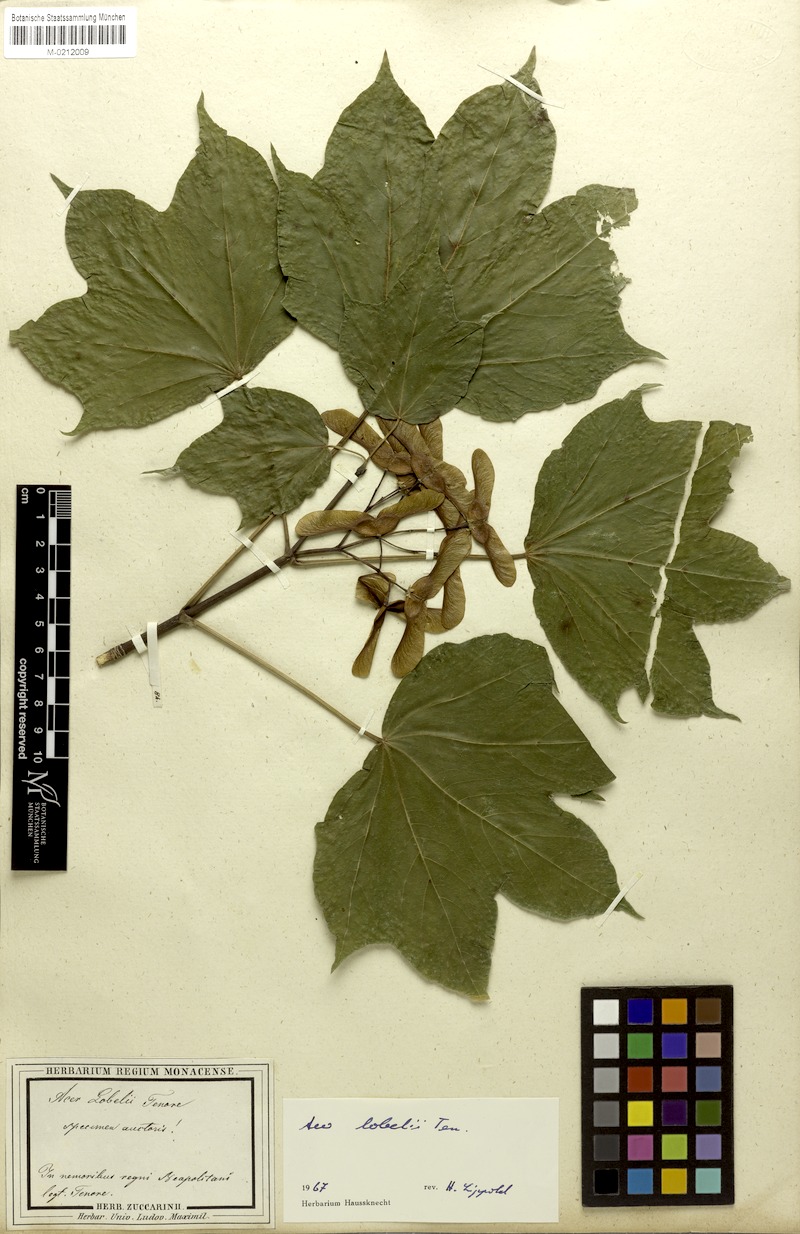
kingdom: Plantae
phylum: Tracheophyta
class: Magnoliopsida
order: Sapindales
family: Sapindaceae
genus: Acer
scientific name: Acer lobelii
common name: Lobel's maple
